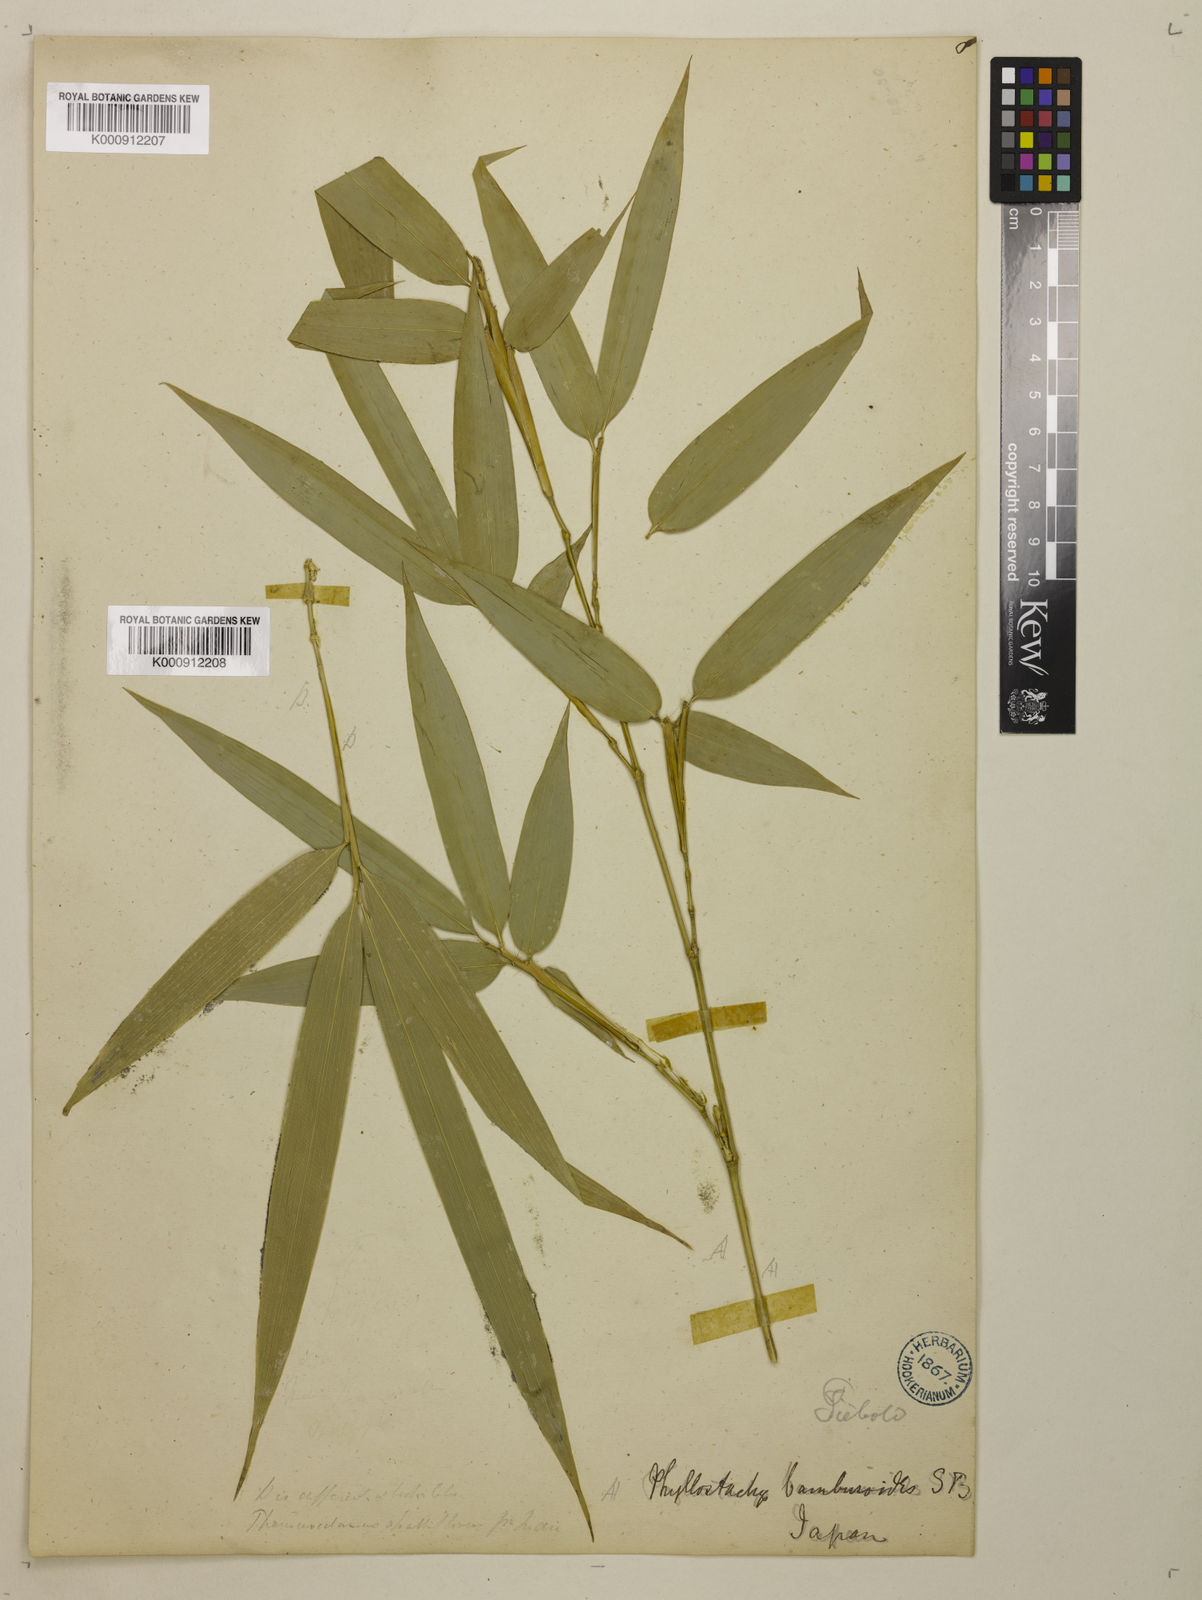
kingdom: Plantae
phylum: Tracheophyta
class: Liliopsida
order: Poales
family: Poaceae
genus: Phyllostachys
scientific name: Phyllostachys reticulata
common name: Bamboo
